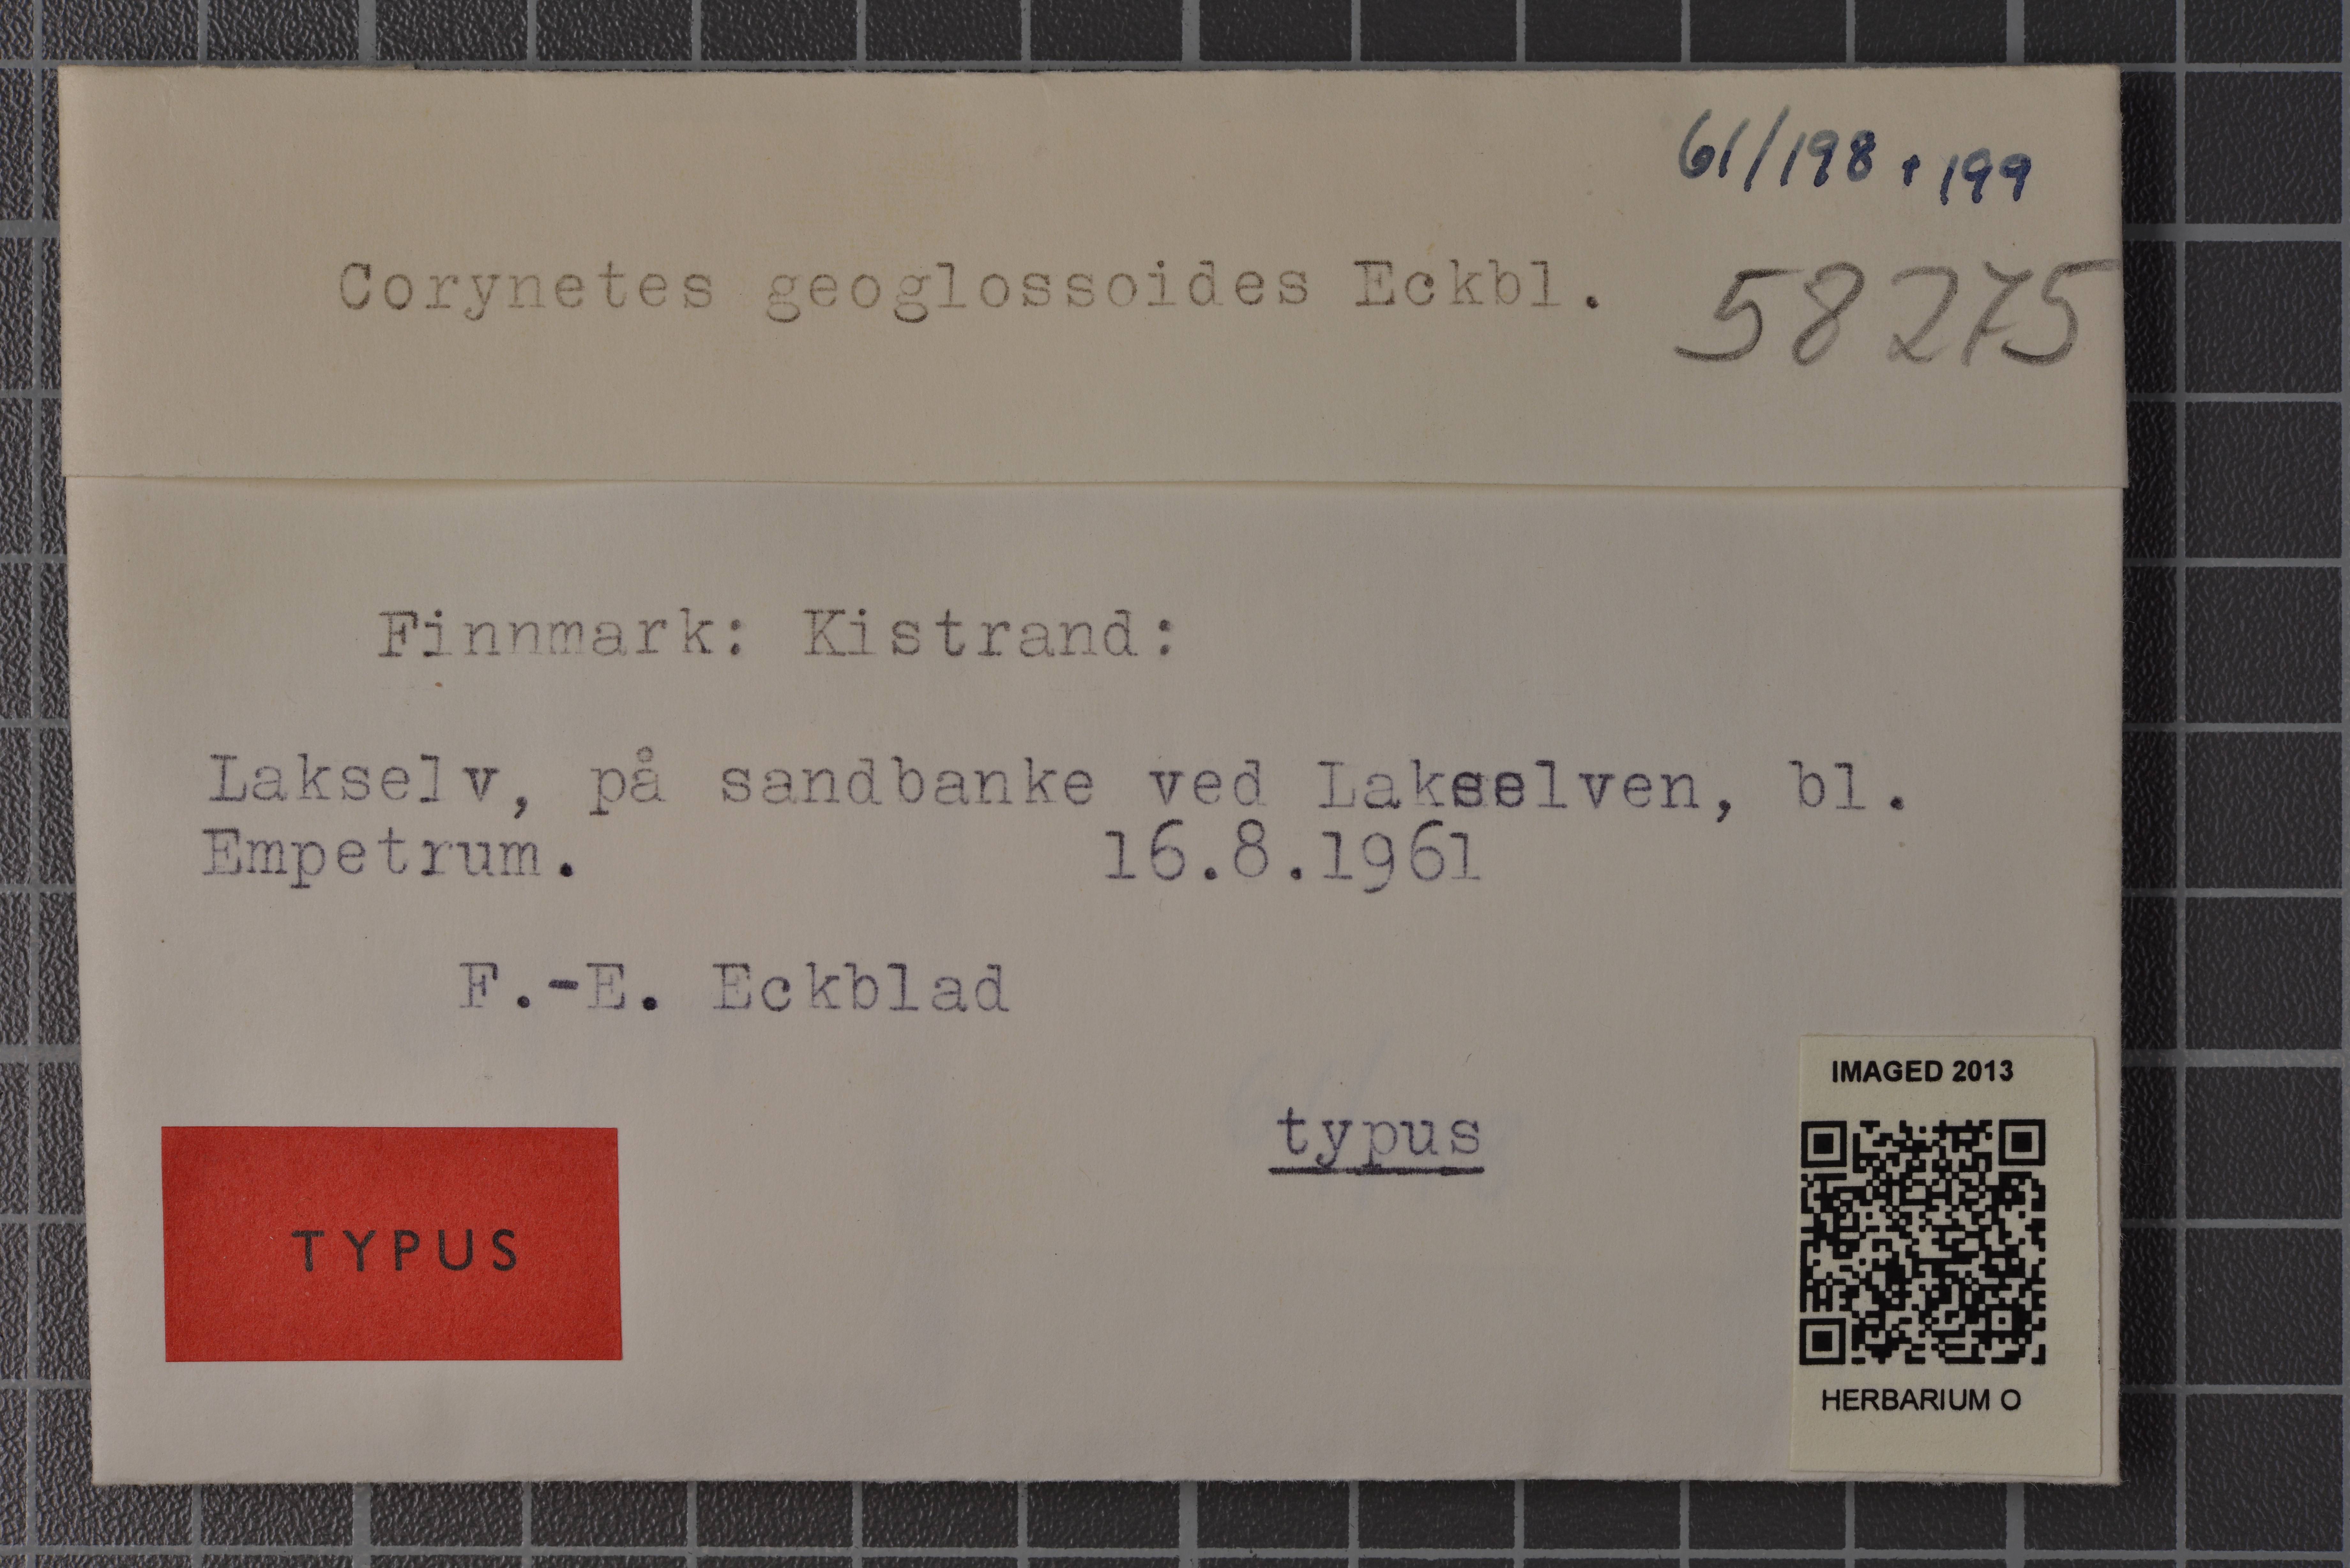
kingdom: Fungi
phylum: Ascomycota
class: Geoglossomycetes
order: Geoglossales
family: Geoglossaceae
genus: Sabuloglossum
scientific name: Sabuloglossum arenarium
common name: Sandy earthtongue
